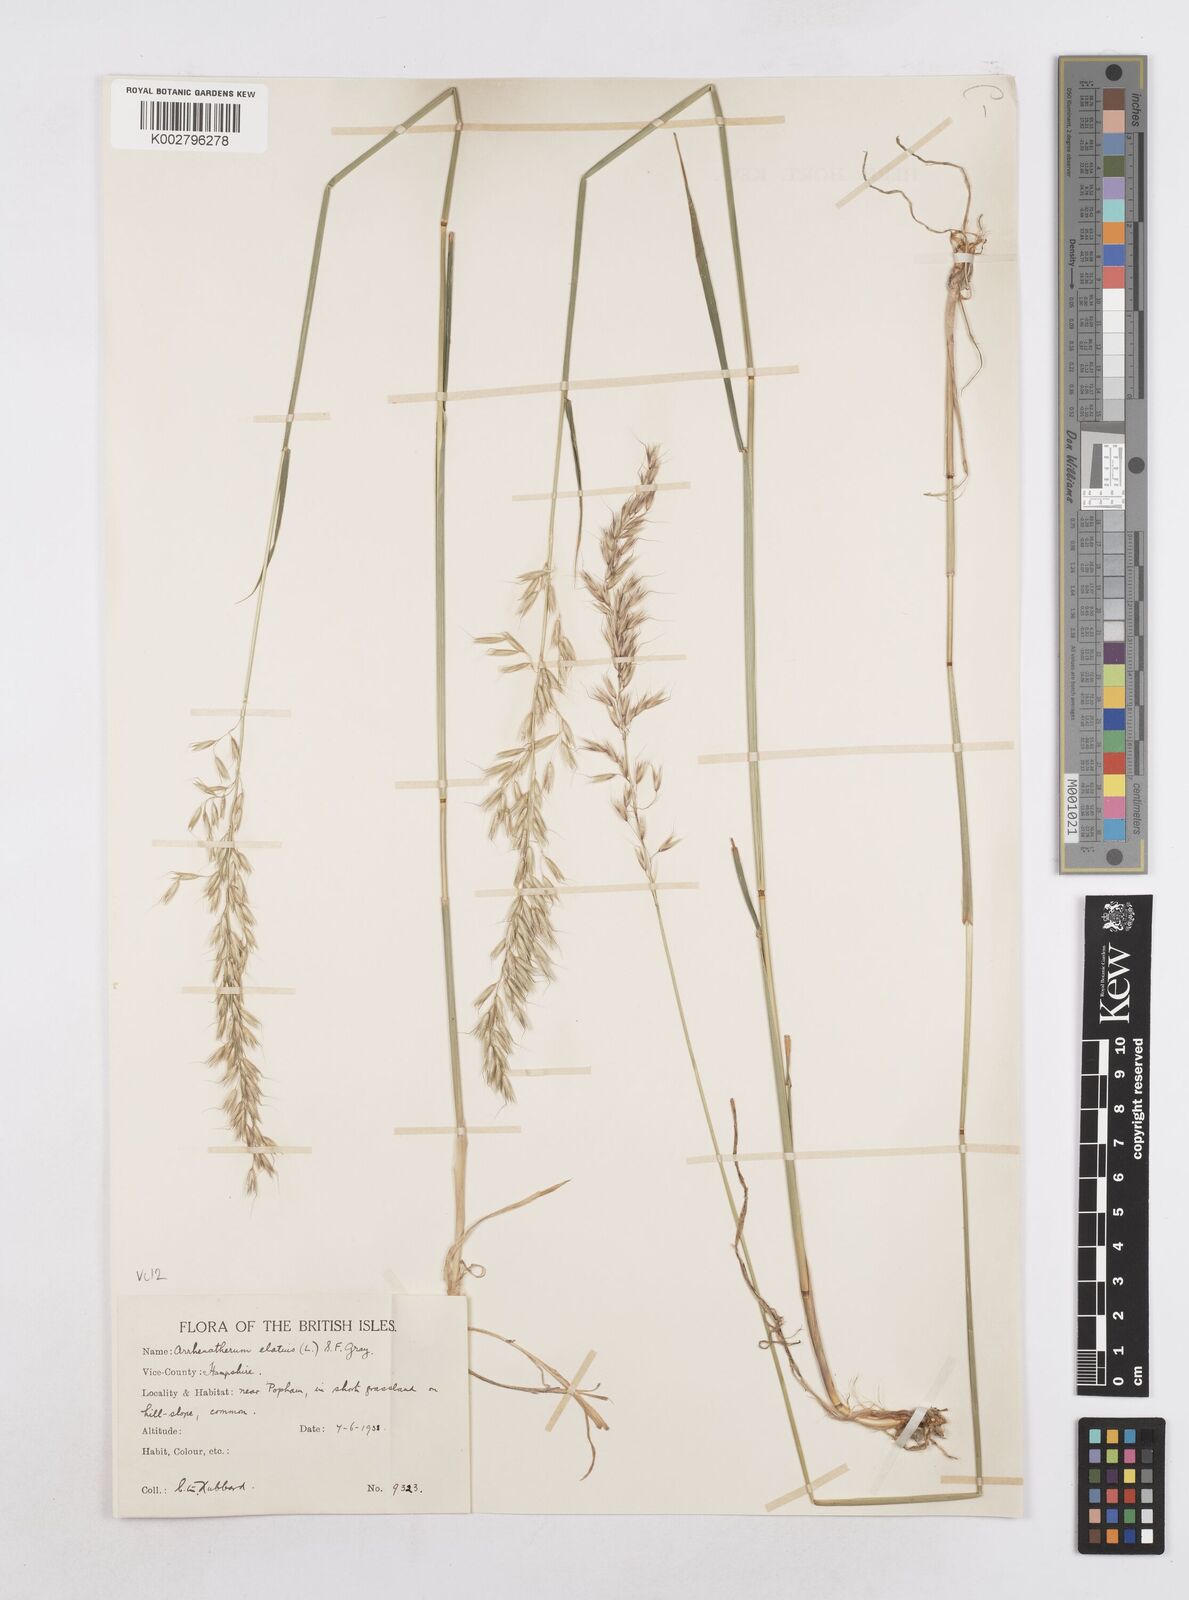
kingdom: Plantae
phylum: Tracheophyta
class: Liliopsida
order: Poales
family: Poaceae
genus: Arrhenatherum
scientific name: Arrhenatherum elatius
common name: Tall oatgrass
